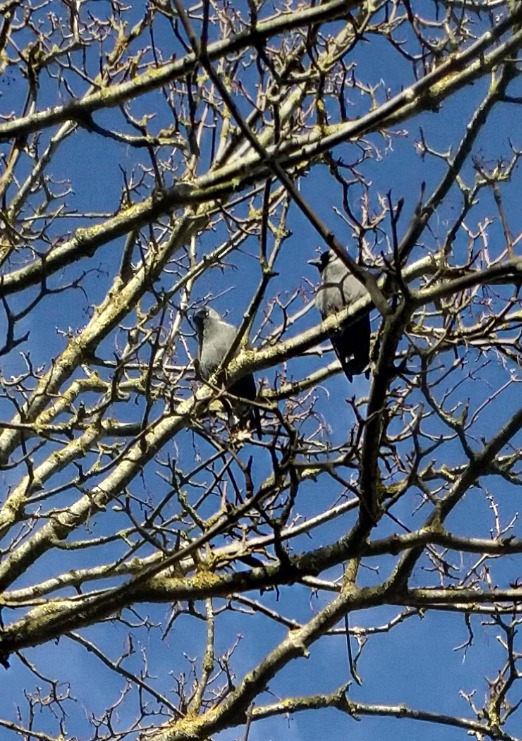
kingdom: Animalia
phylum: Chordata
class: Aves
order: Passeriformes
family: Corvidae
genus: Coloeus
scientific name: Coloeus monedula
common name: Allike
